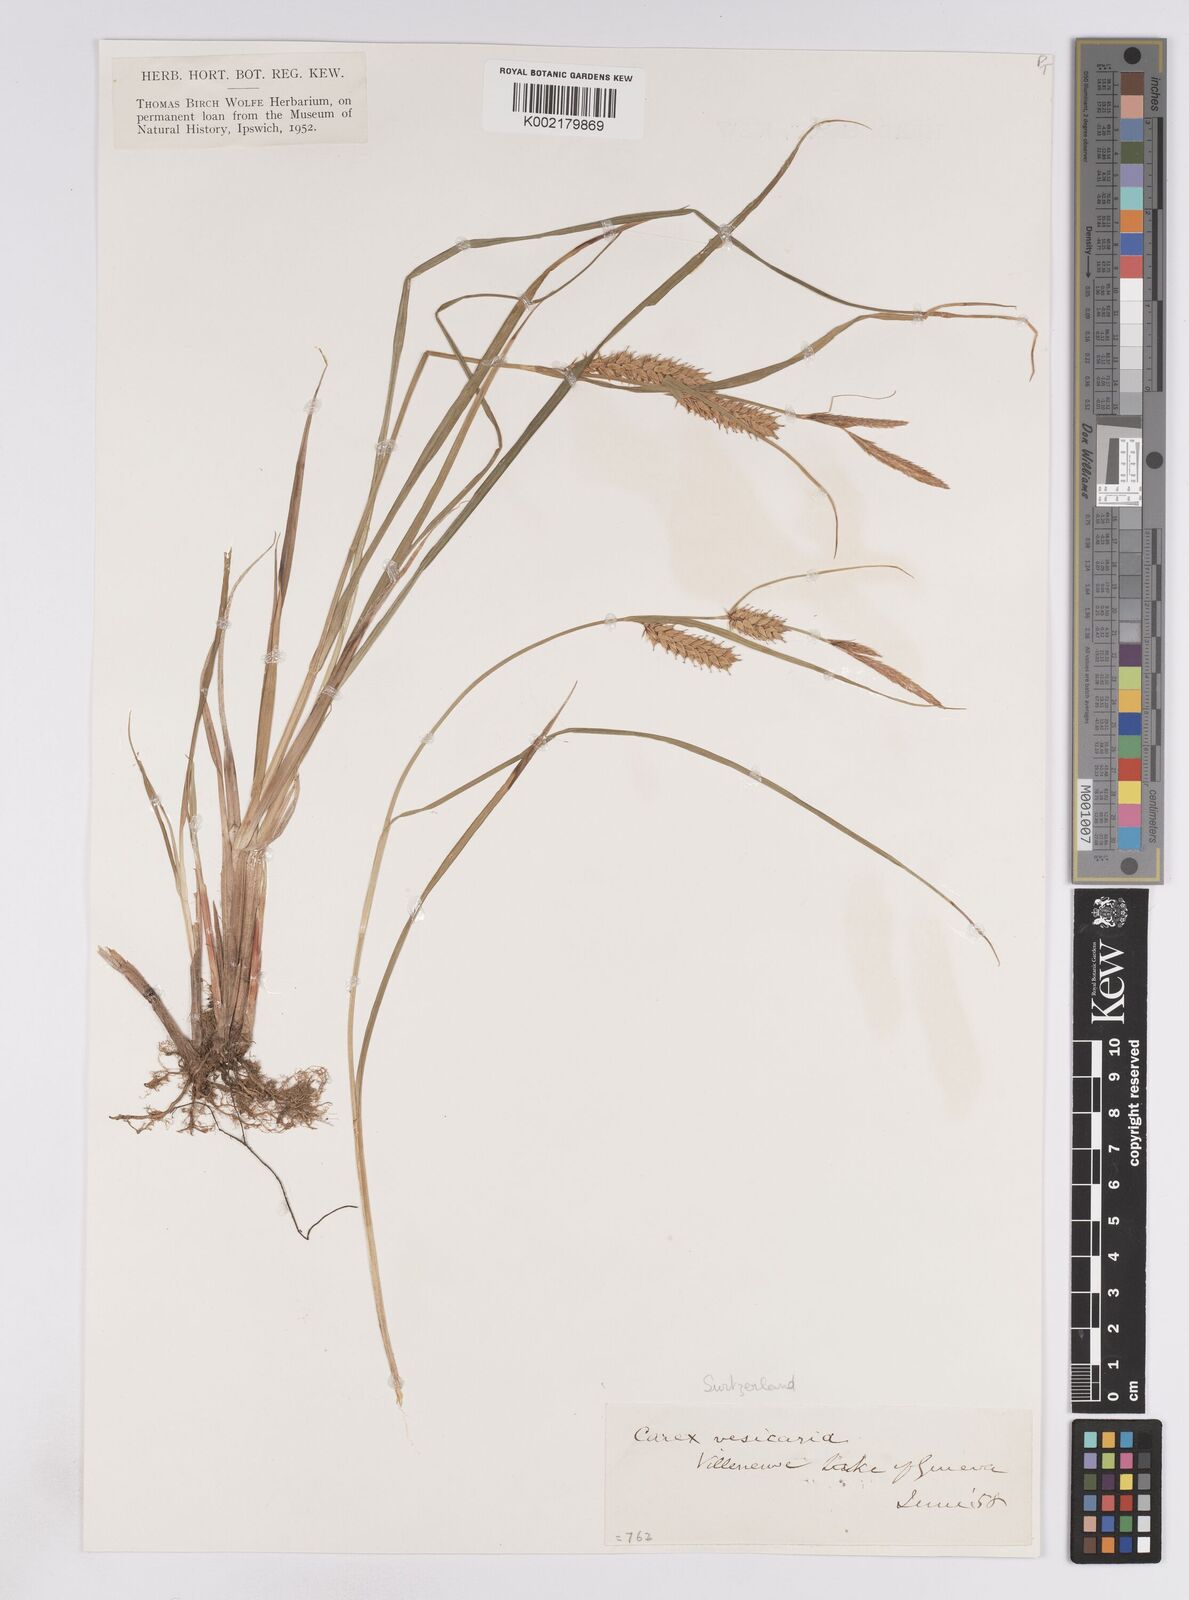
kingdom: Plantae
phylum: Tracheophyta
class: Liliopsida
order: Poales
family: Cyperaceae
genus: Carex
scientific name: Carex rostrata
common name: Bottle sedge
